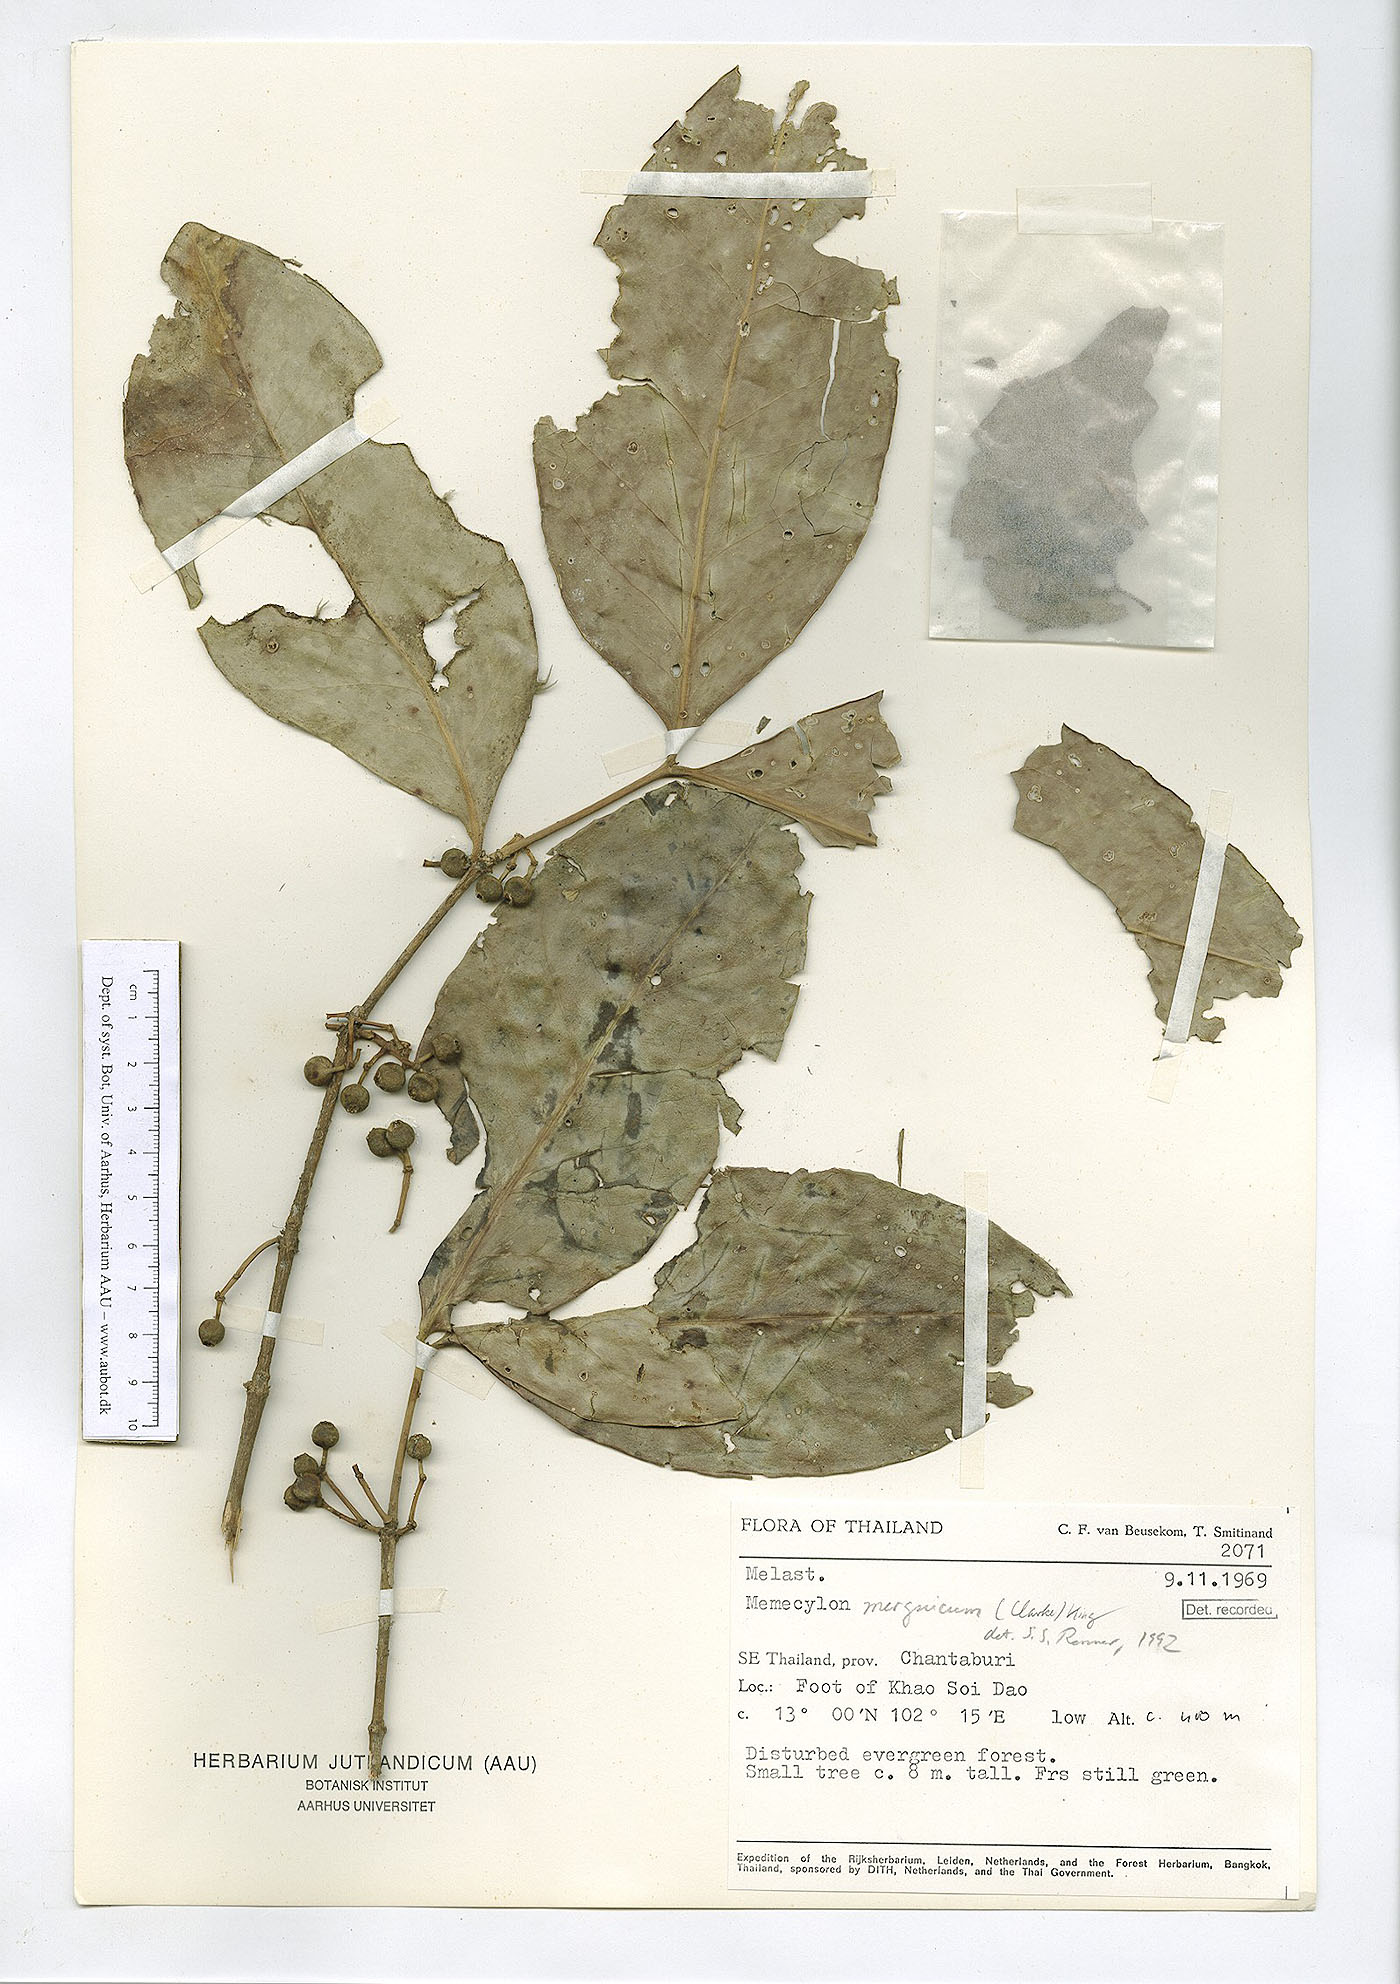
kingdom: Plantae
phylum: Tracheophyta
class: Magnoliopsida
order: Myrtales
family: Melastomataceae
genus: Memecylon
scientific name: Memecylon elegans
